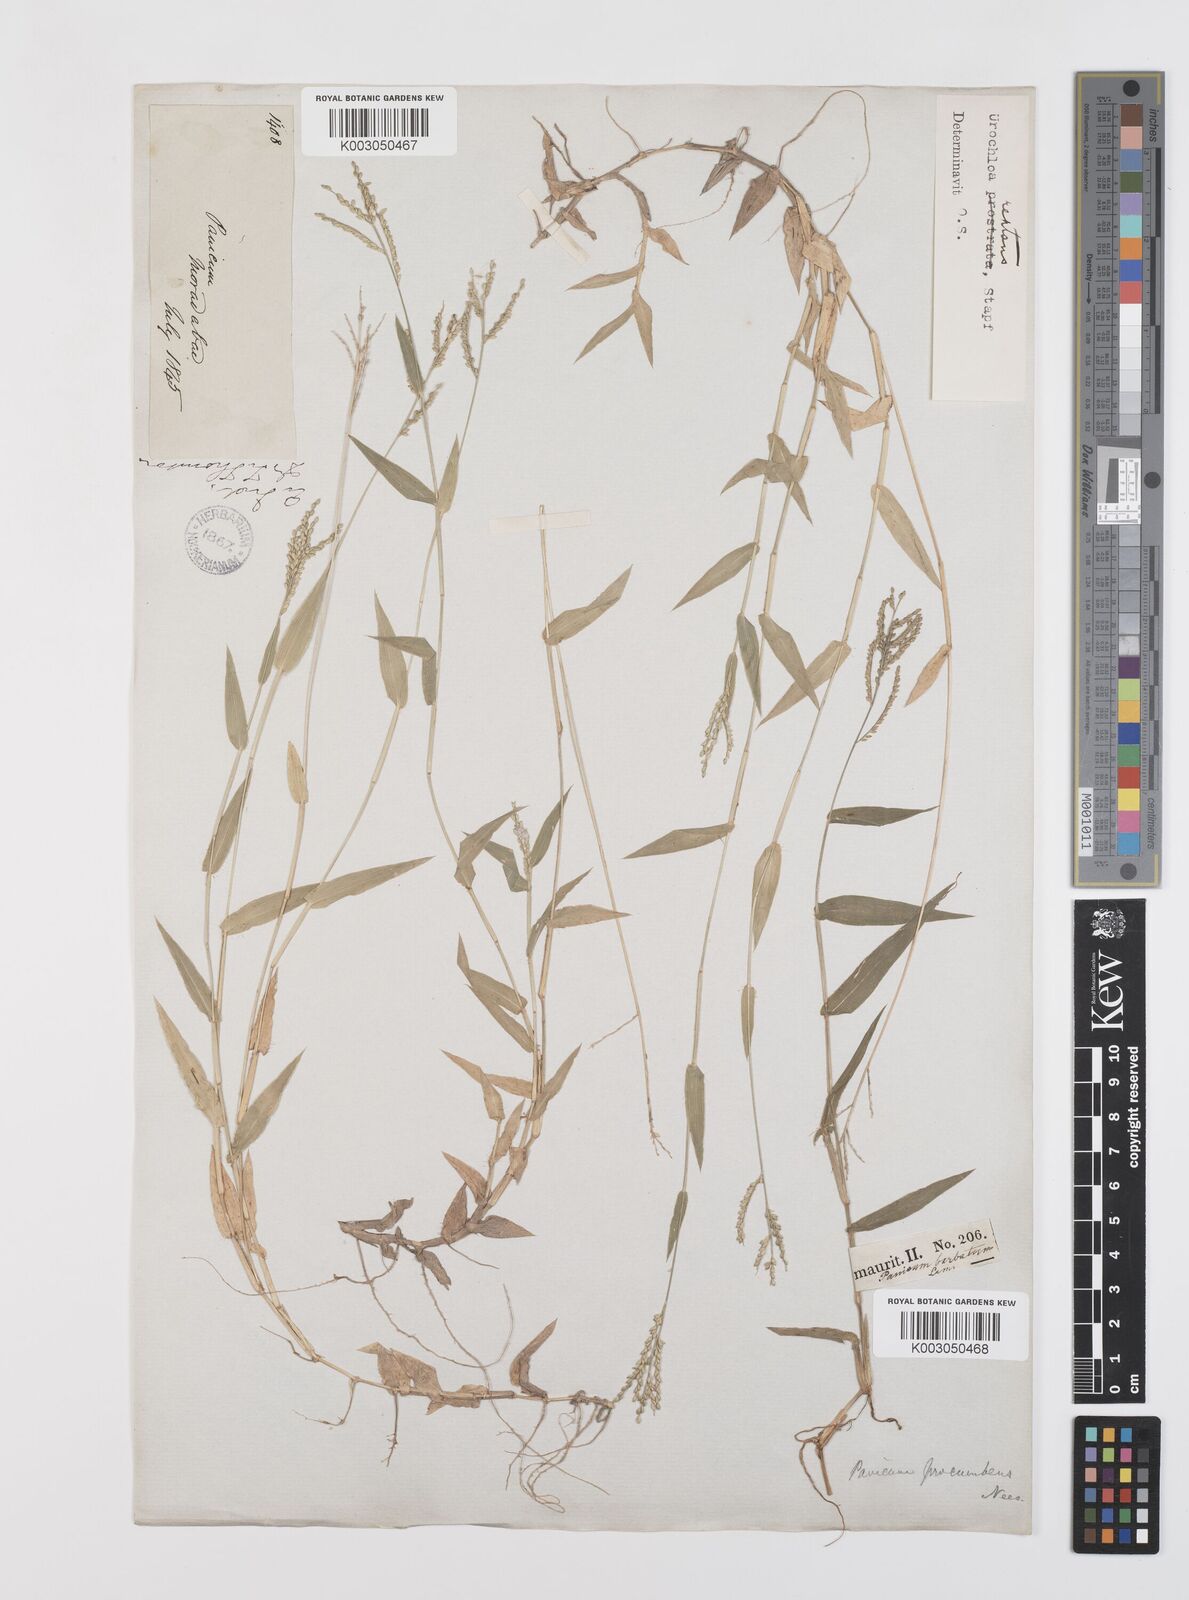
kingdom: Plantae
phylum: Tracheophyta
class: Liliopsida
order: Poales
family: Poaceae
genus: Urochloa
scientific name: Urochloa reptans
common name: Sprawling signalgrass
